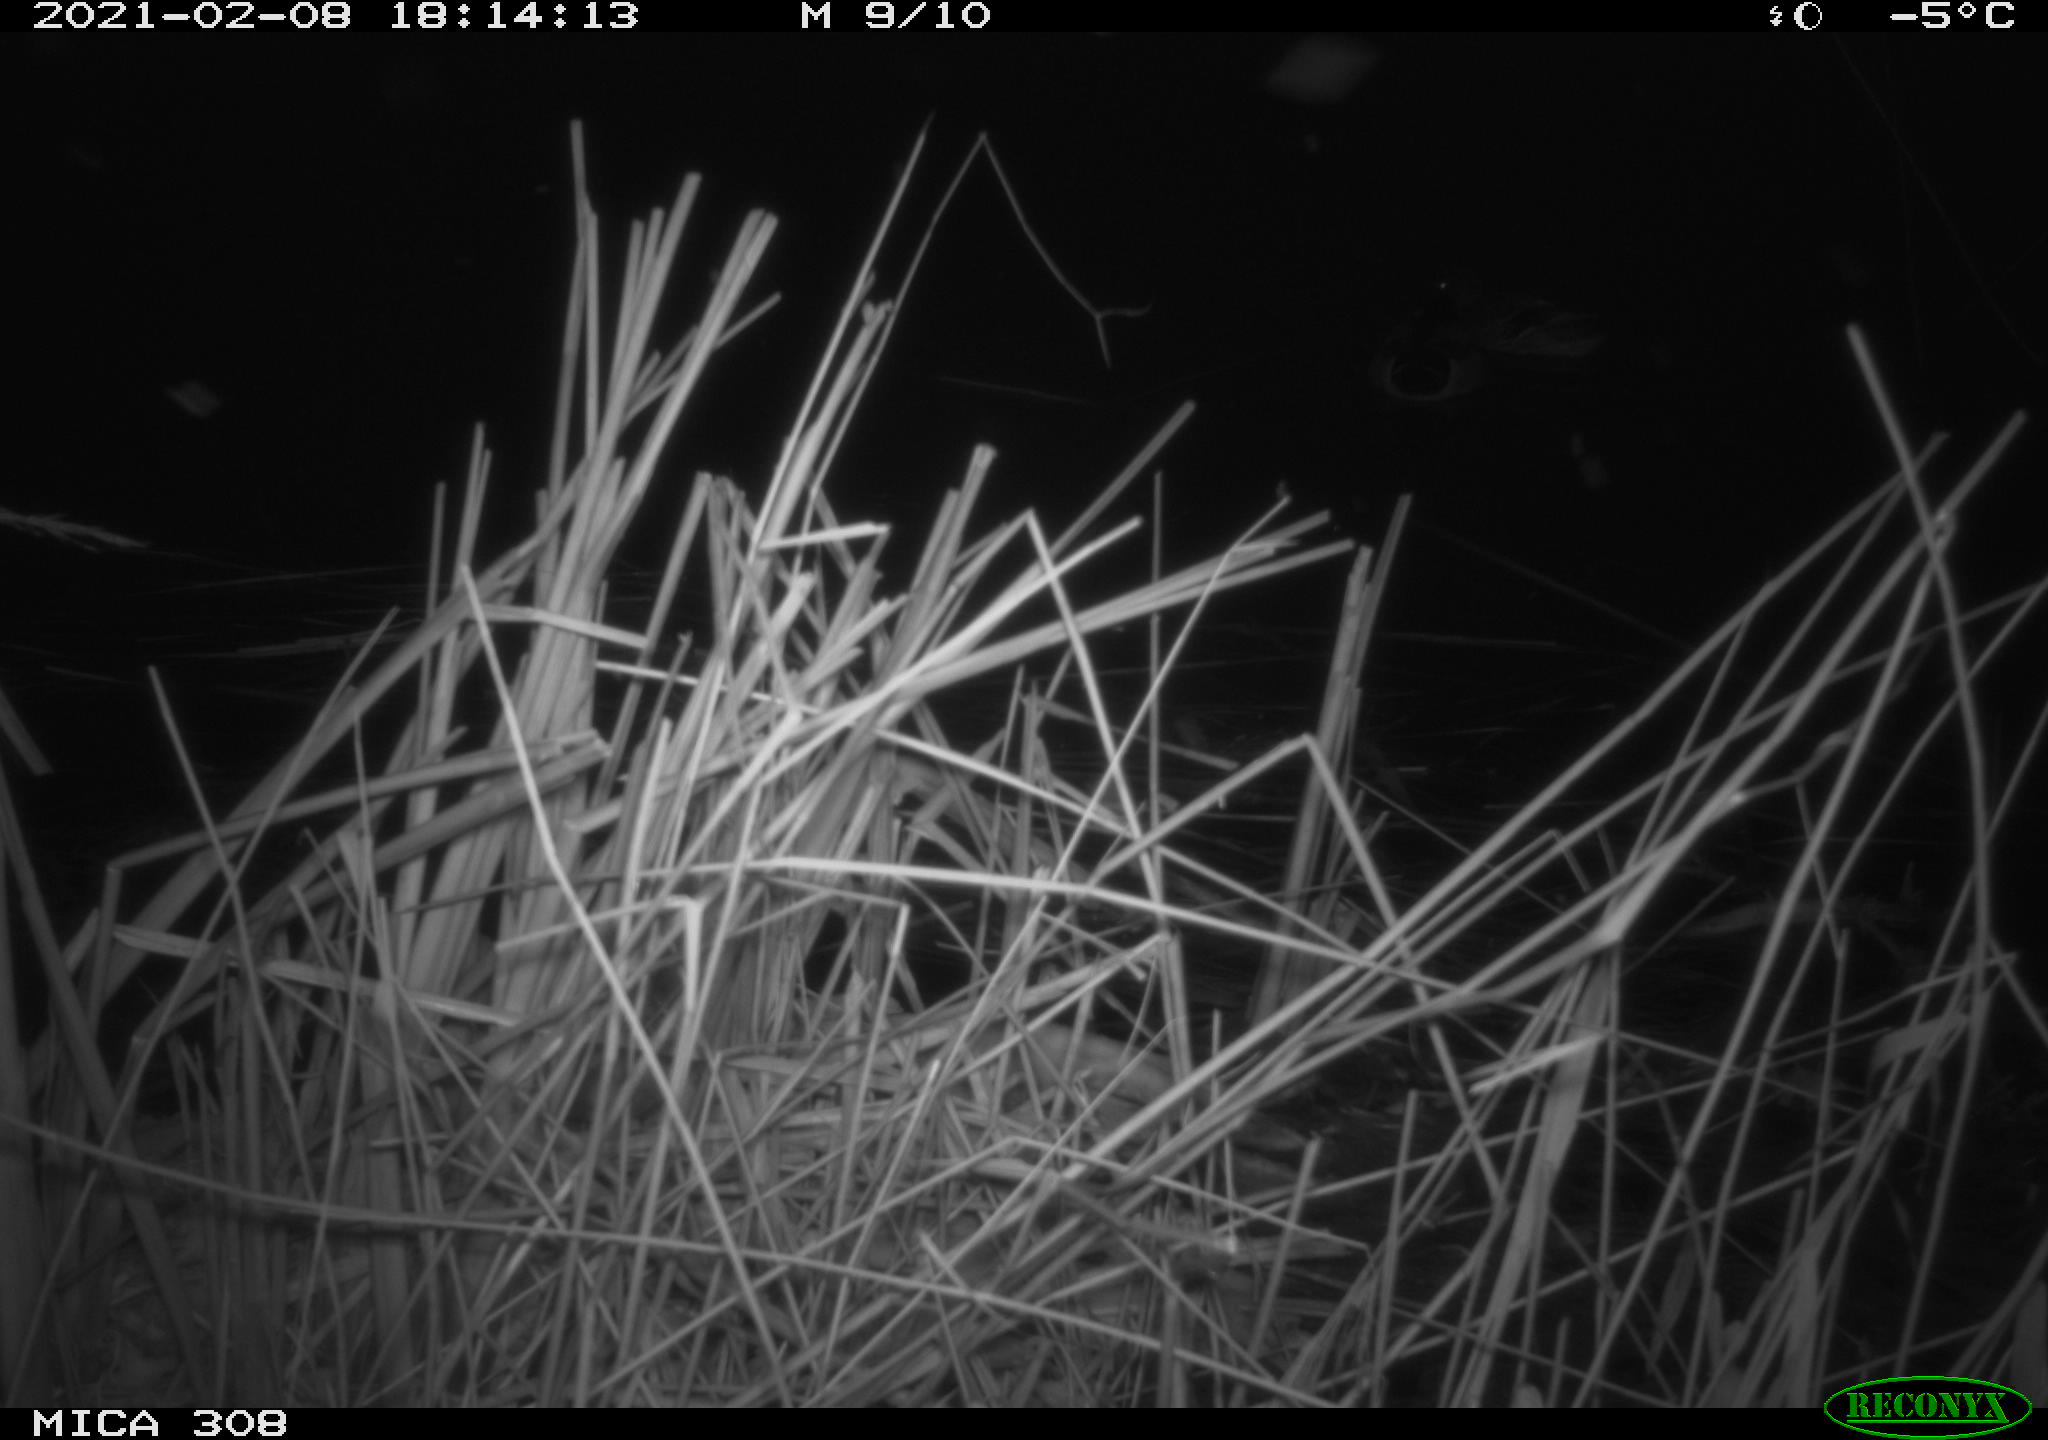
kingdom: Animalia
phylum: Chordata
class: Aves
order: Anseriformes
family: Anatidae
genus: Anas
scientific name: Anas platyrhynchos
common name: Mallard
